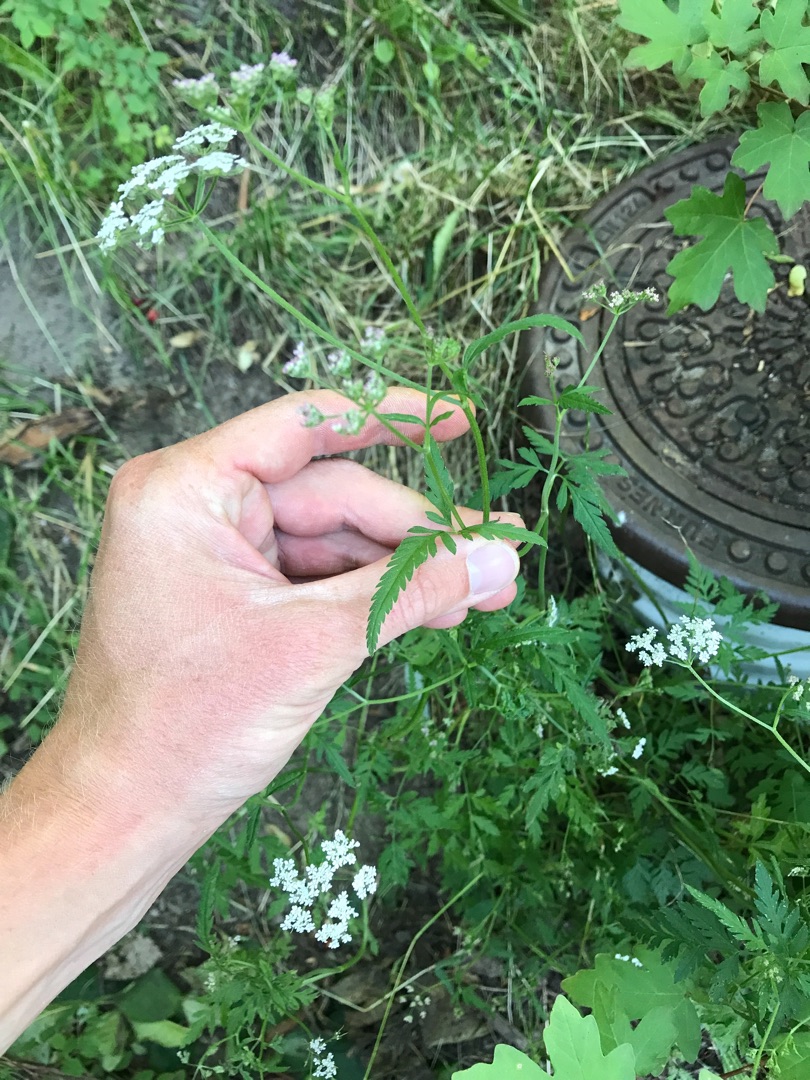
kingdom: Plantae
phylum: Tracheophyta
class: Magnoliopsida
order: Apiales
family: Apiaceae
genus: Torilis
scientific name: Torilis japonica
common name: Hvas randfrø
